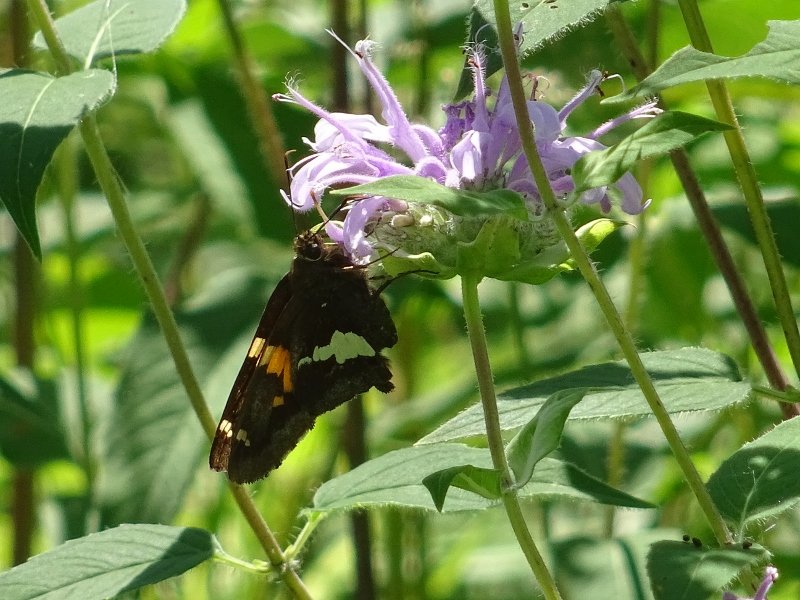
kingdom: Animalia
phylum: Arthropoda
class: Insecta
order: Lepidoptera
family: Hesperiidae
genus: Epargyreus
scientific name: Epargyreus clarus
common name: Silver-spotted Skipper
